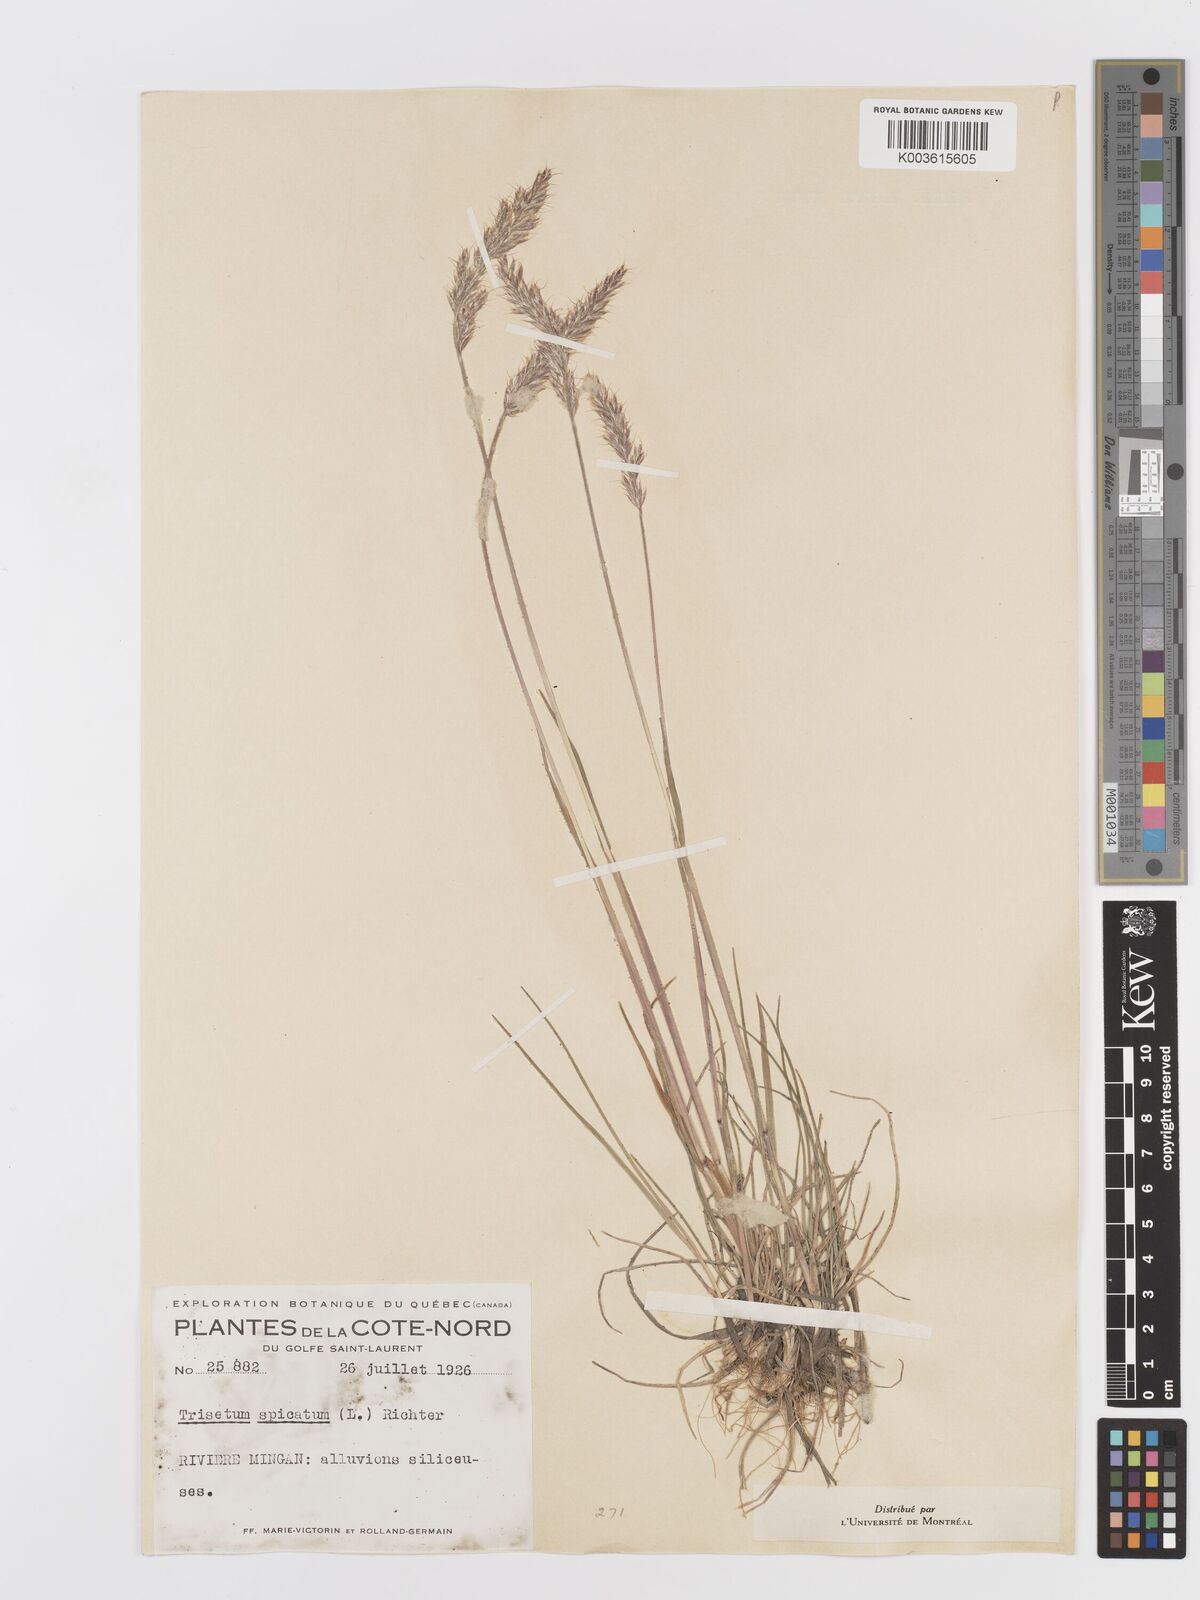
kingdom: Plantae
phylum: Tracheophyta
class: Liliopsida
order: Poales
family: Poaceae
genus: Koeleria
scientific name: Koeleria spicata
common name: Mountain trisetum
